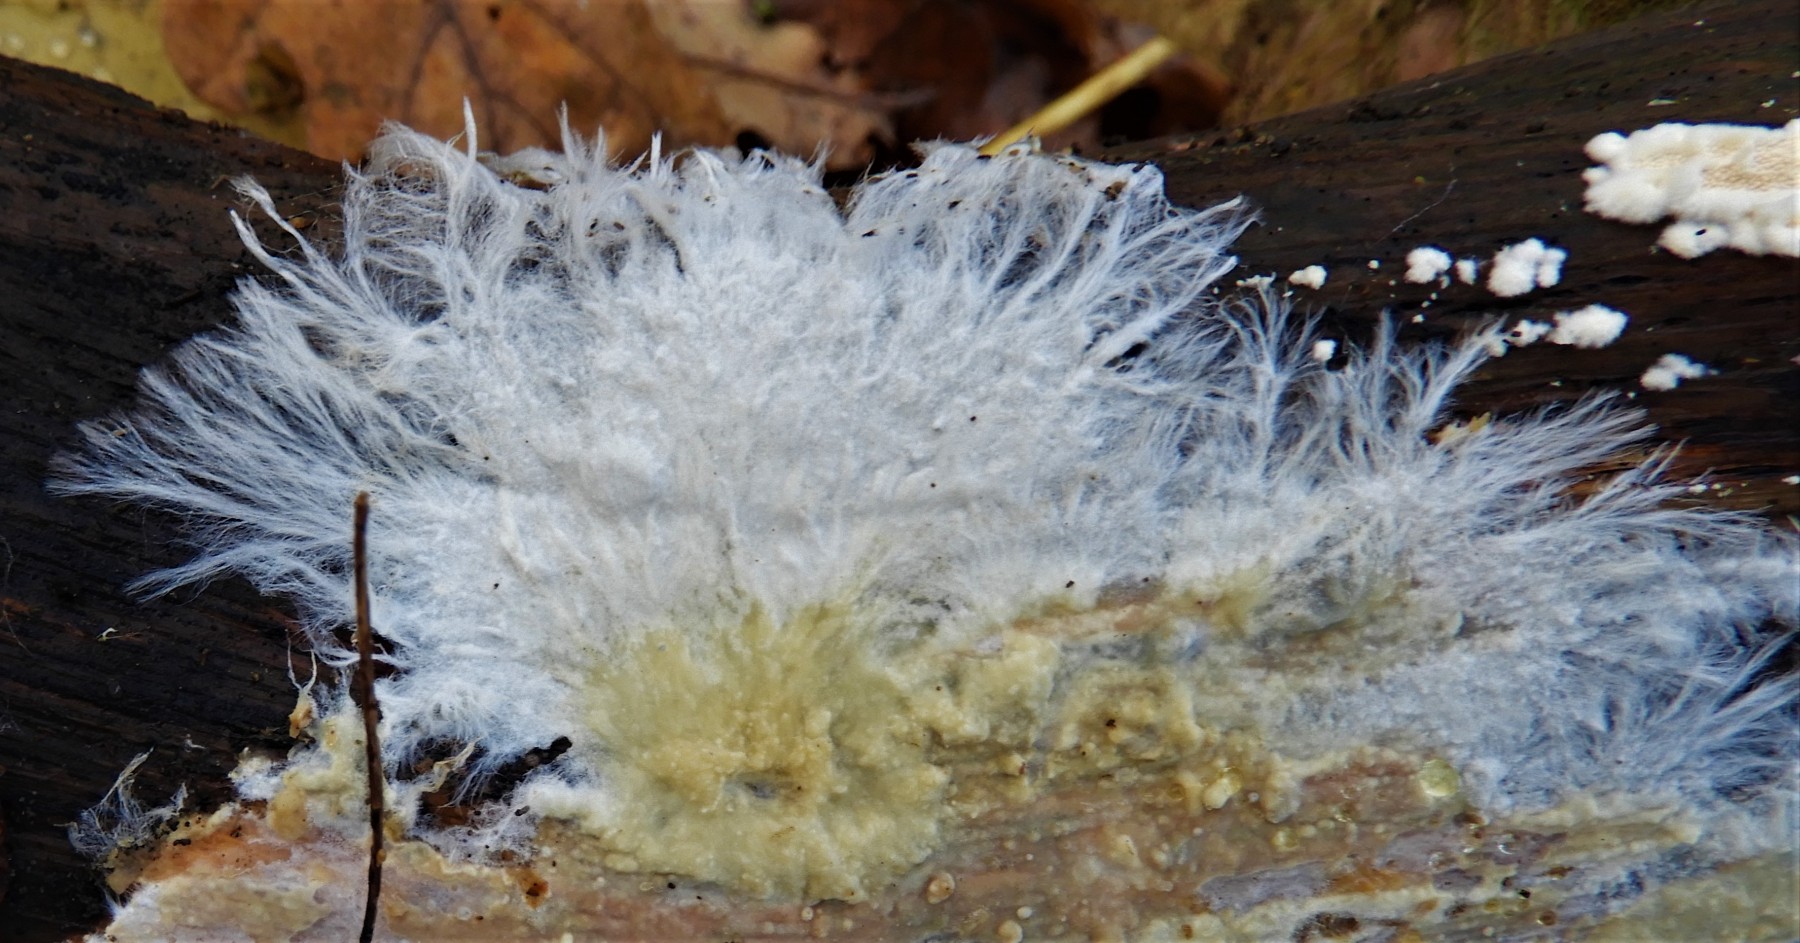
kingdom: Fungi
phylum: Basidiomycota
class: Agaricomycetes
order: Corticiales
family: Corticiaceae
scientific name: Corticiaceae
